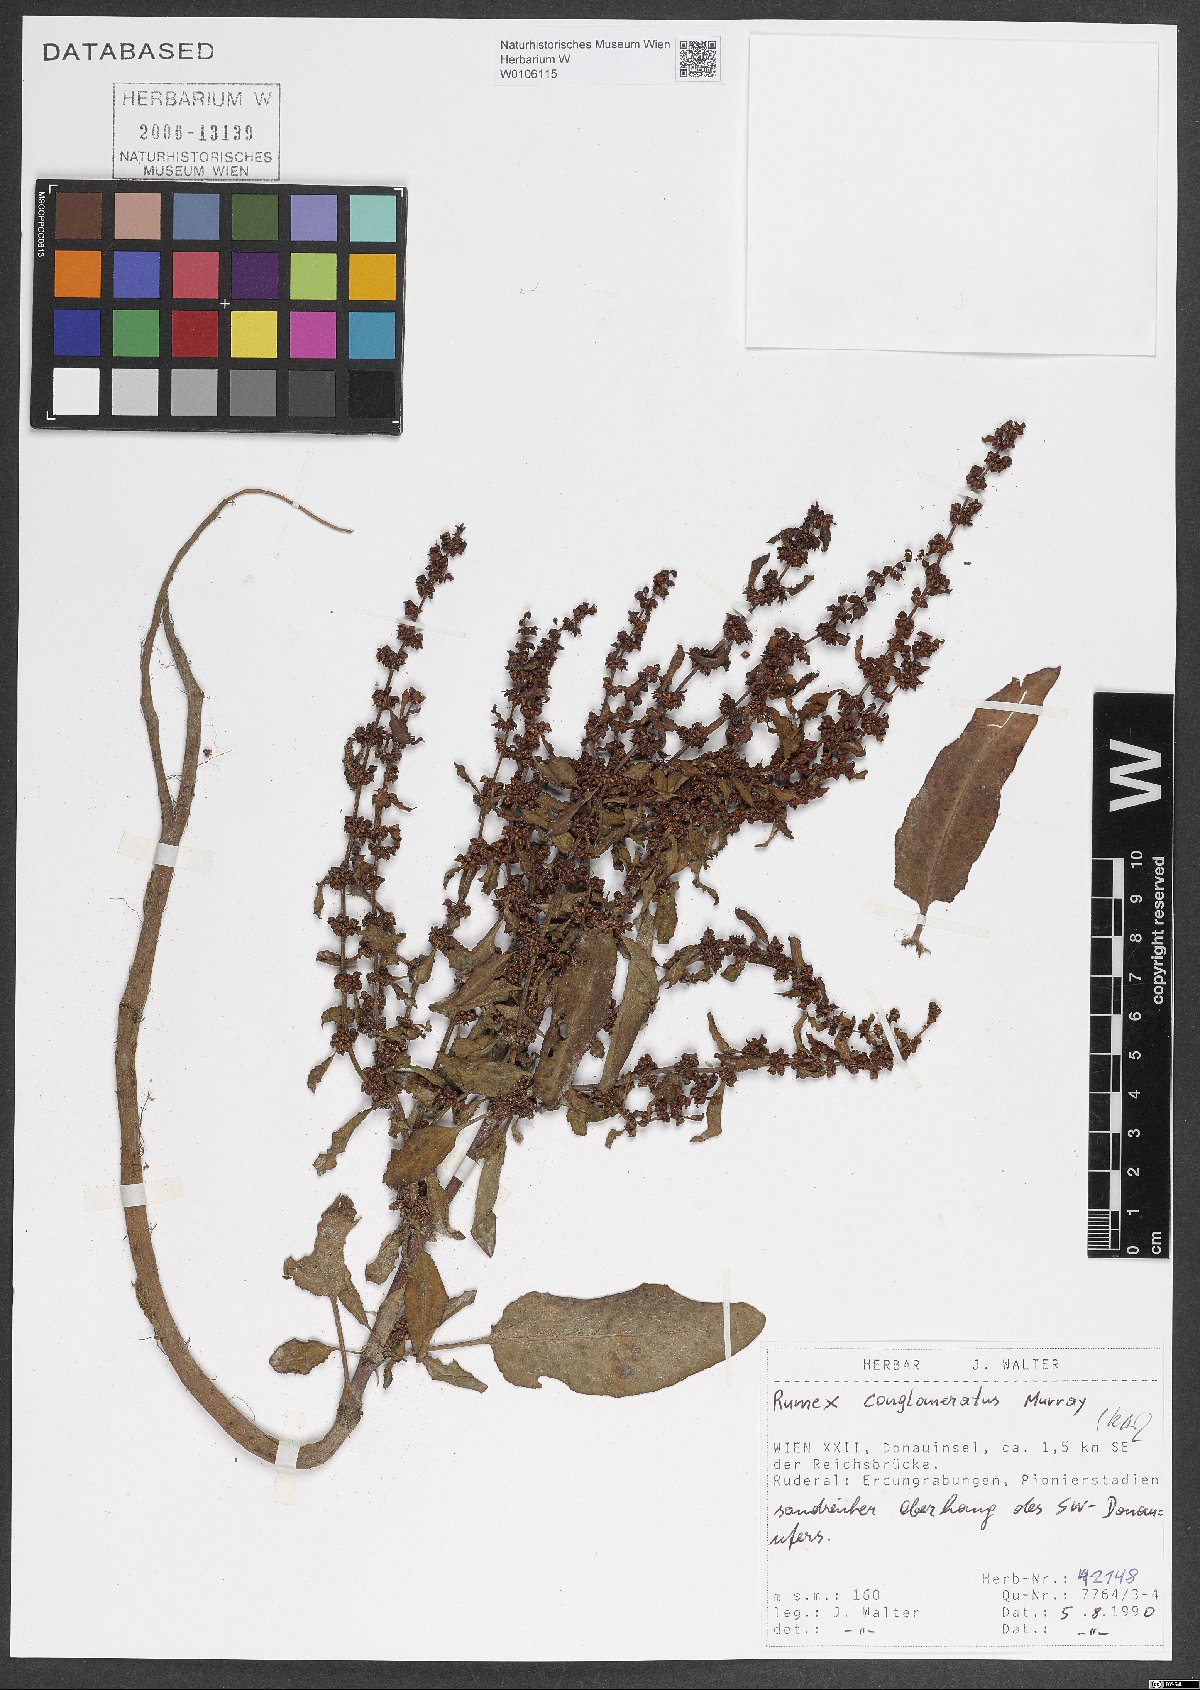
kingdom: Plantae
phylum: Tracheophyta
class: Magnoliopsida
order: Caryophyllales
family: Polygonaceae
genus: Rumex
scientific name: Rumex conglomeratus
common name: Clustered dock
